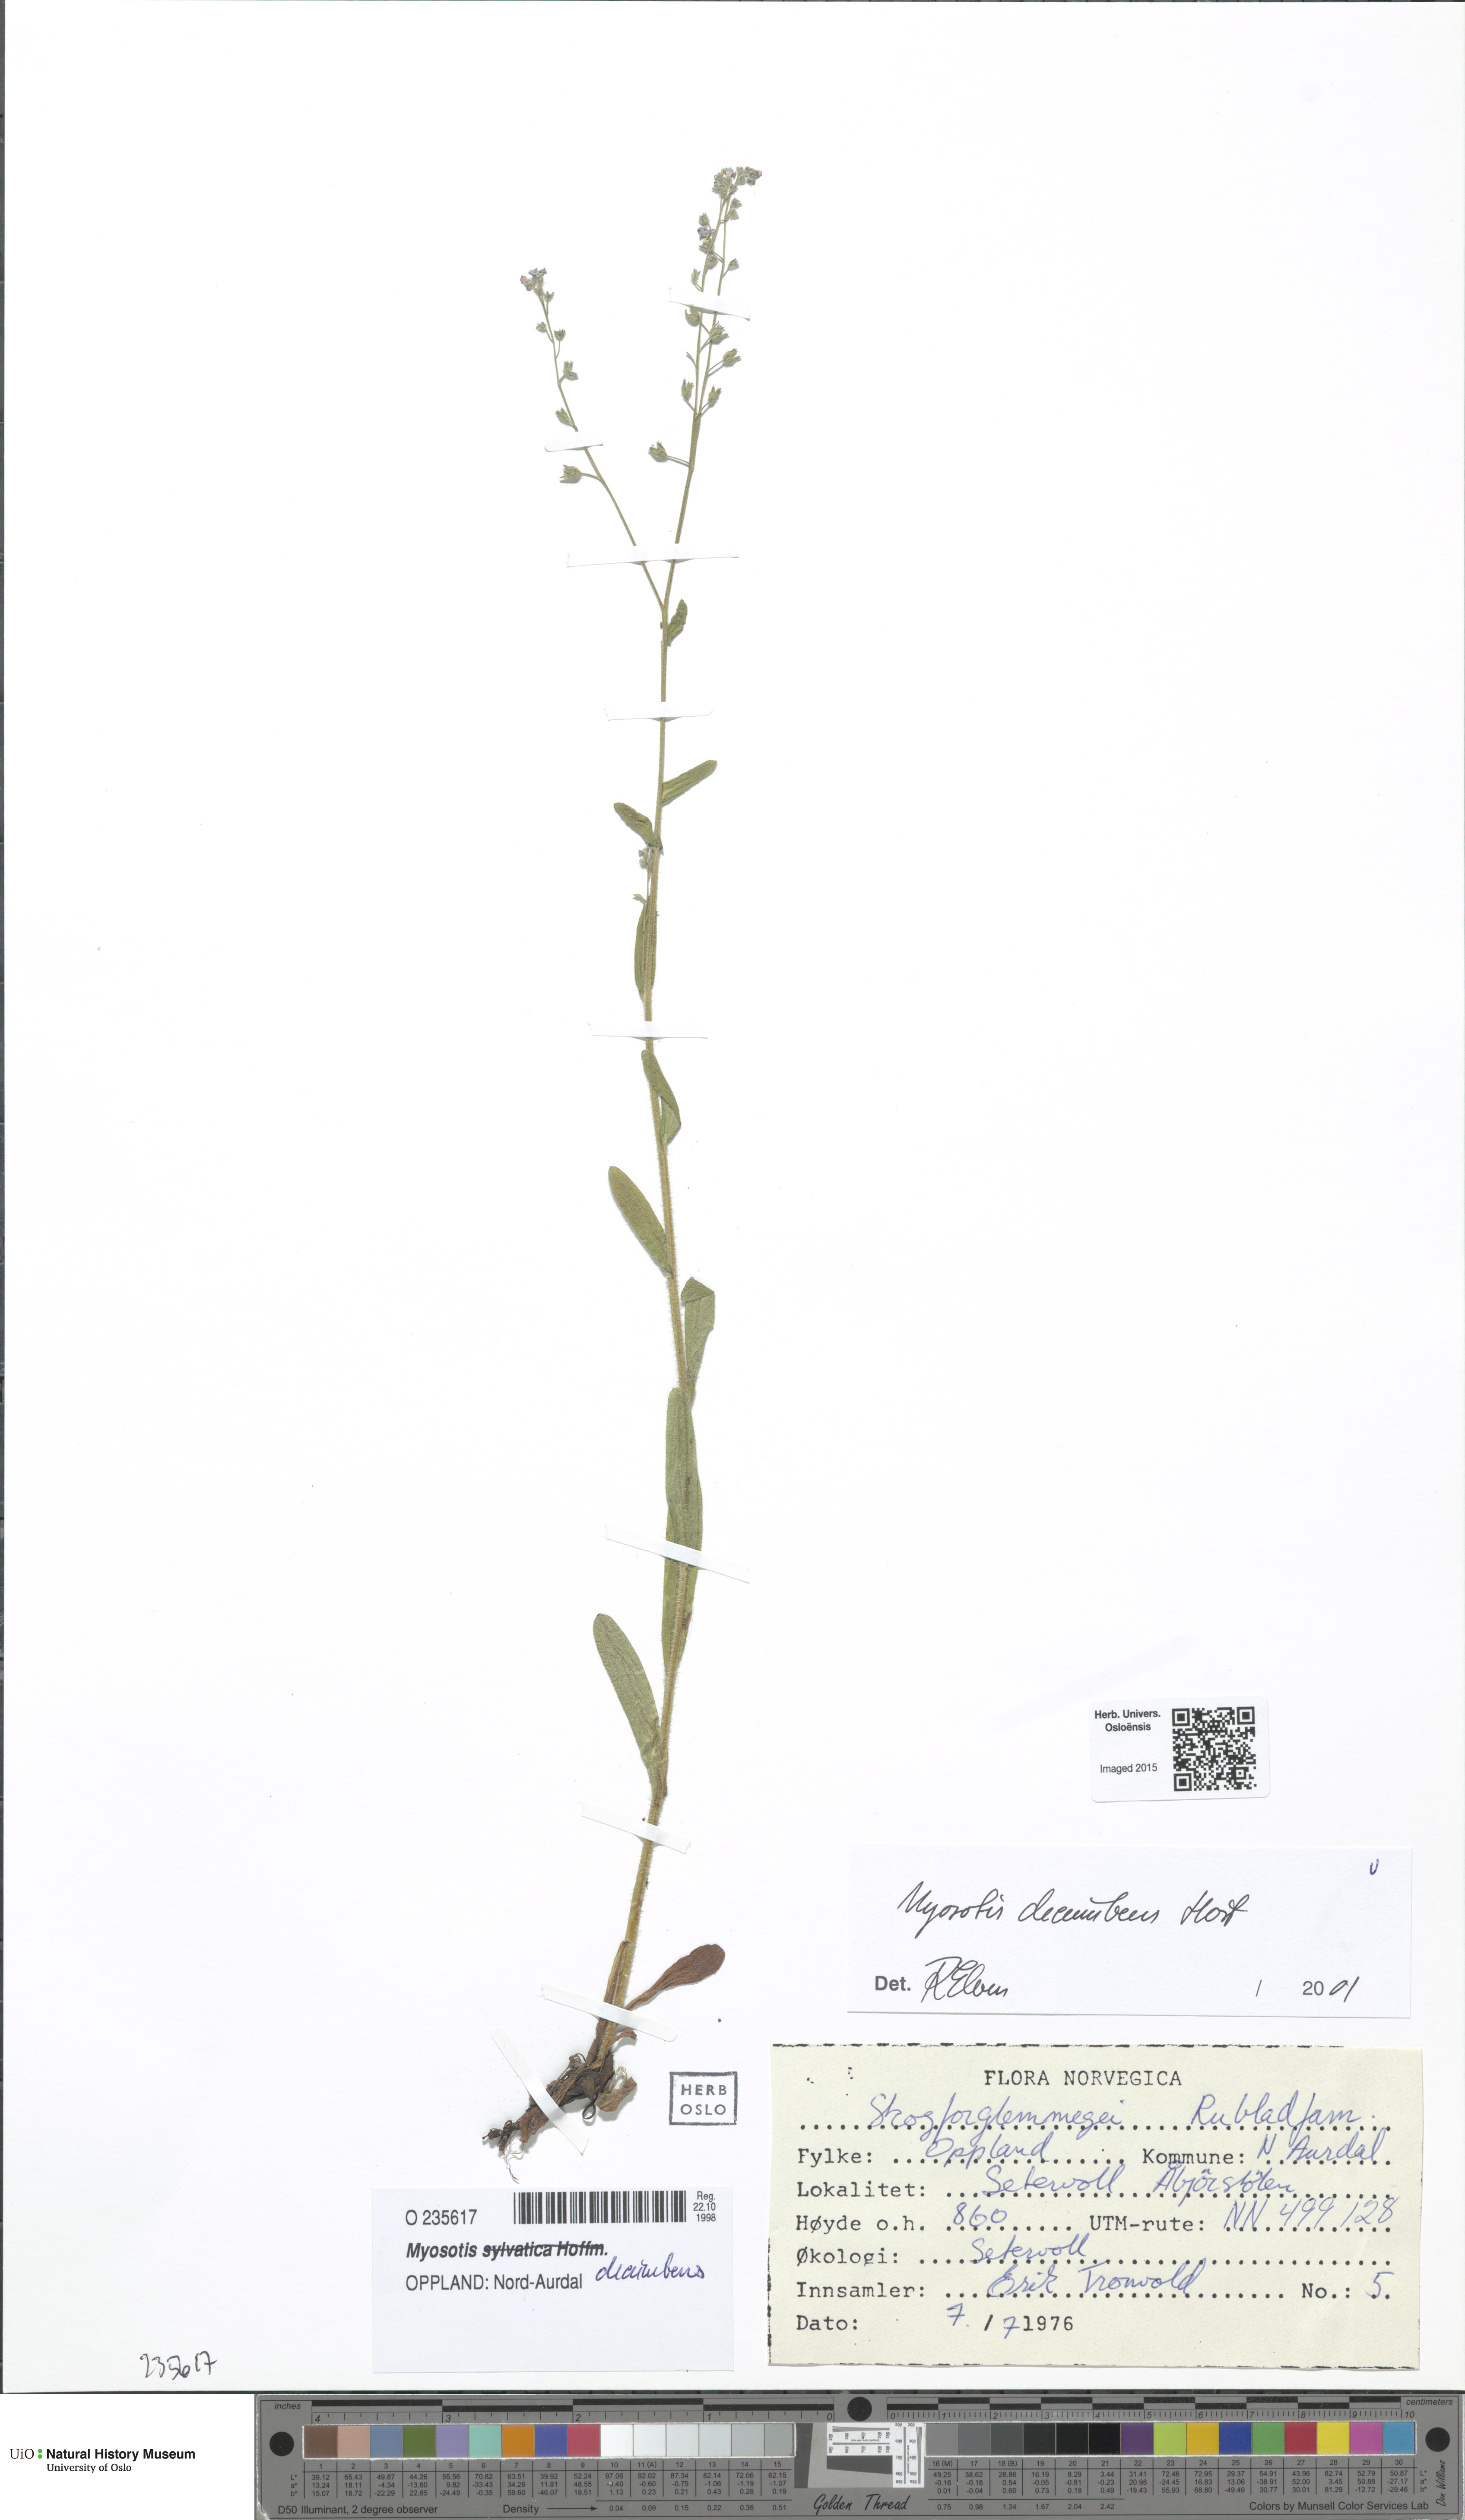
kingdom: Plantae
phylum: Tracheophyta
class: Magnoliopsida
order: Boraginales
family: Boraginaceae
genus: Myosotis
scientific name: Myosotis decumbens
